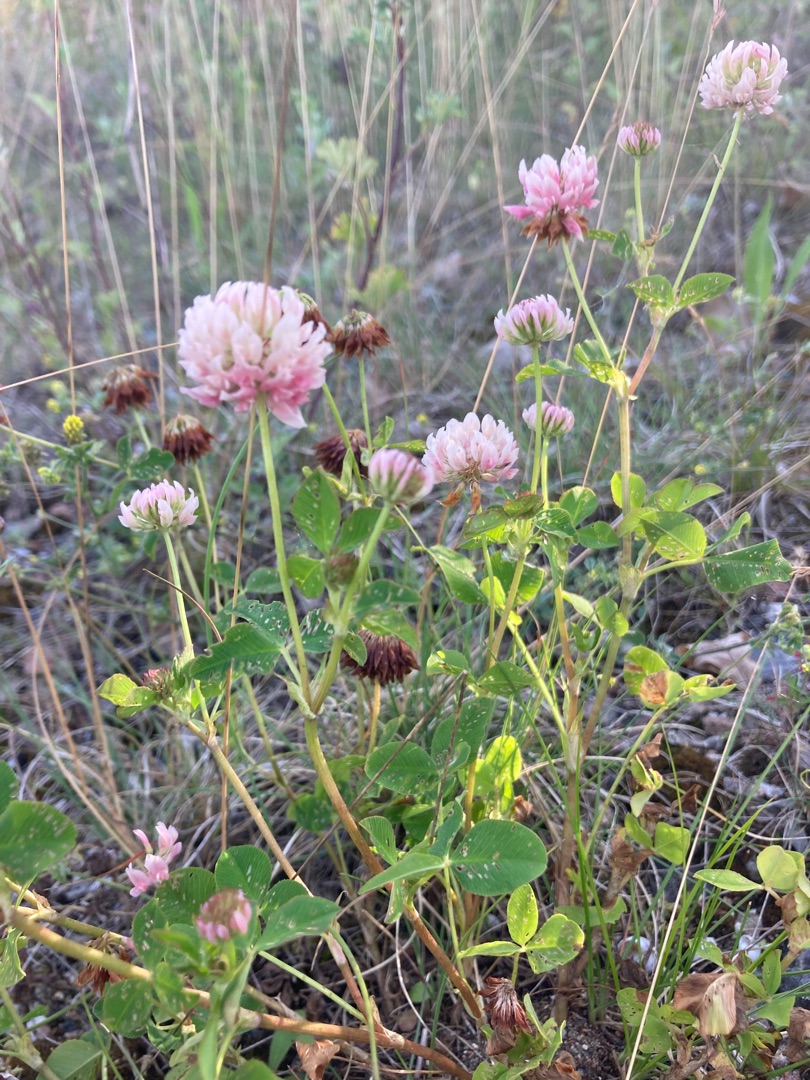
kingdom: Plantae
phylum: Tracheophyta
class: Magnoliopsida
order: Fabales
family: Fabaceae
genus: Trifolium
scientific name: Trifolium hybridum
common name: Alsike-kløver
